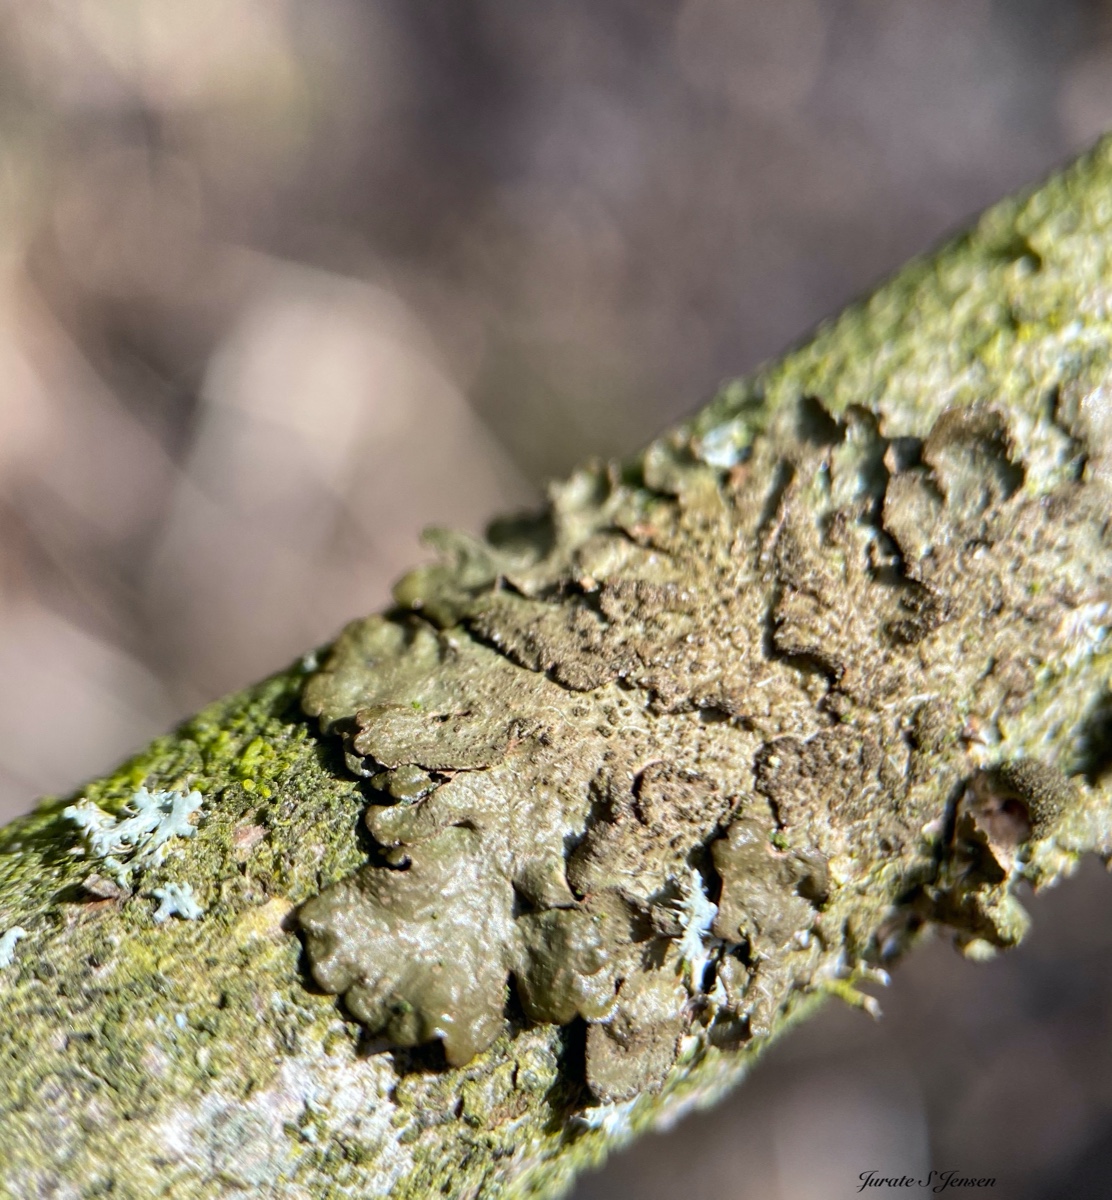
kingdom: Fungi
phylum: Ascomycota
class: Lecanoromycetes
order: Lecanorales
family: Parmeliaceae
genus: Melanelixia
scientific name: Melanelixia subaurifera
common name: guldpudret skållav
